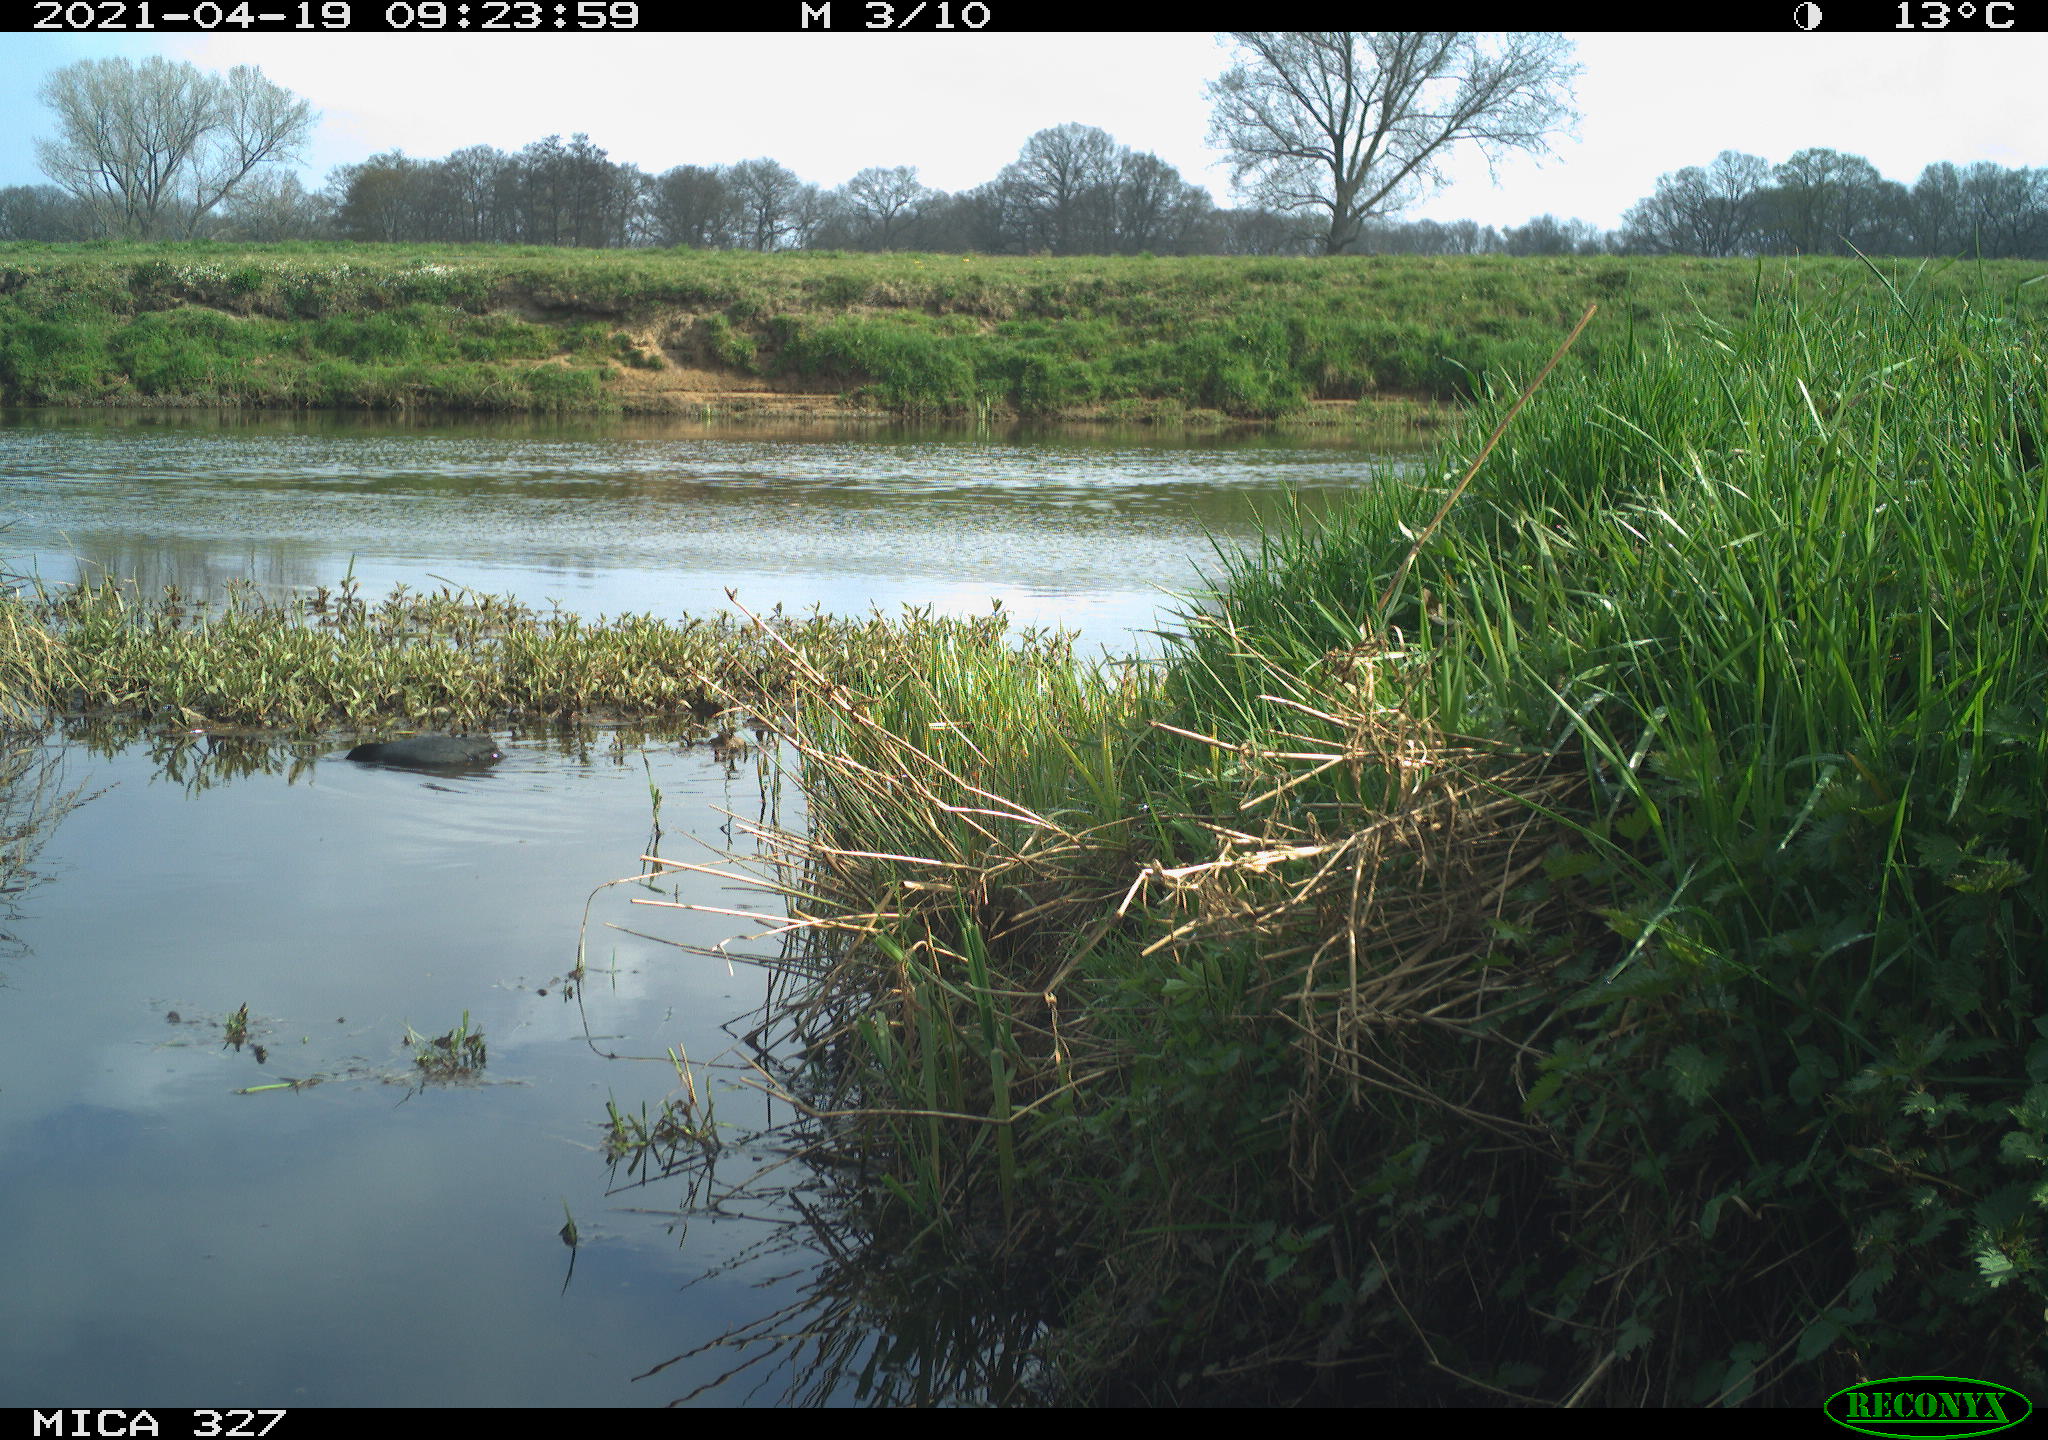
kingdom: Animalia
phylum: Chordata
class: Aves
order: Gruiformes
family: Rallidae
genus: Fulica
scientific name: Fulica atra
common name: Eurasian coot
